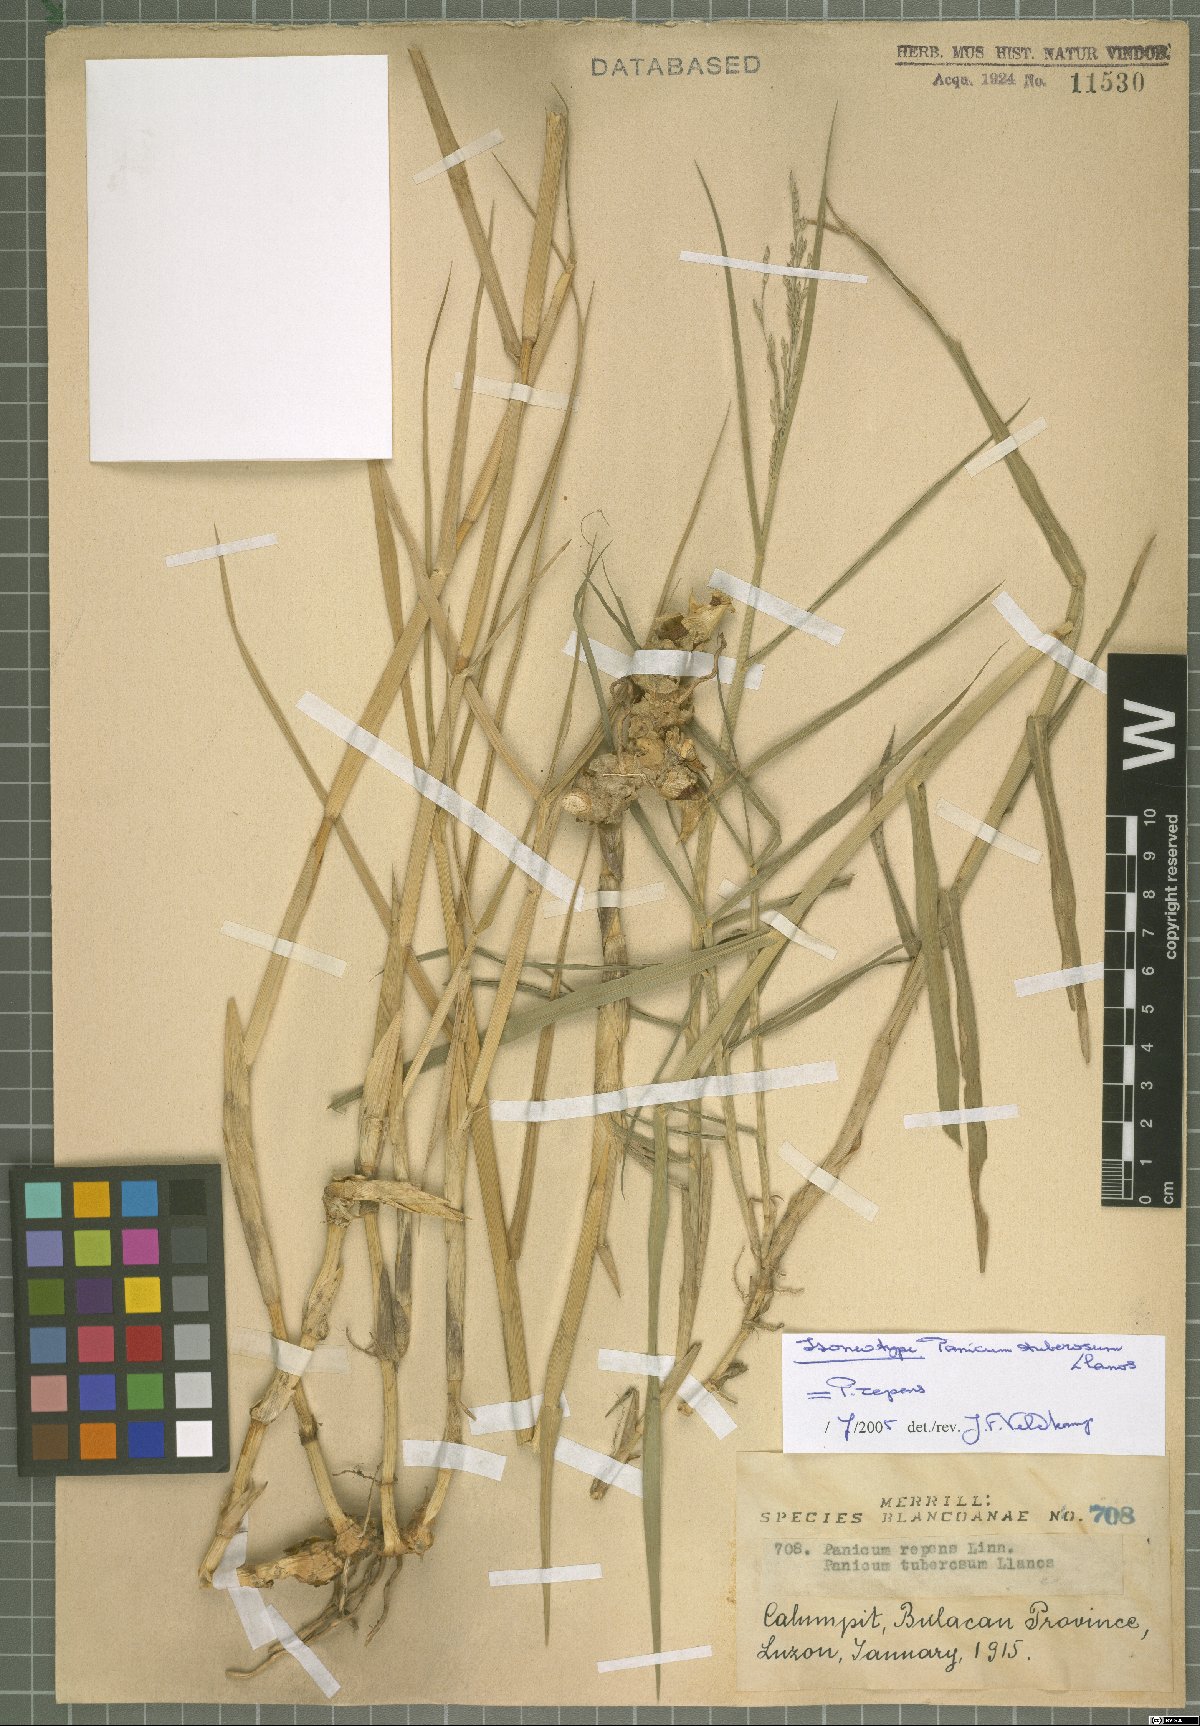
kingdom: Plantae
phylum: Tracheophyta
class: Liliopsida
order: Poales
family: Poaceae
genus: Panicum
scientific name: Panicum repens
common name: Torpedo grass
